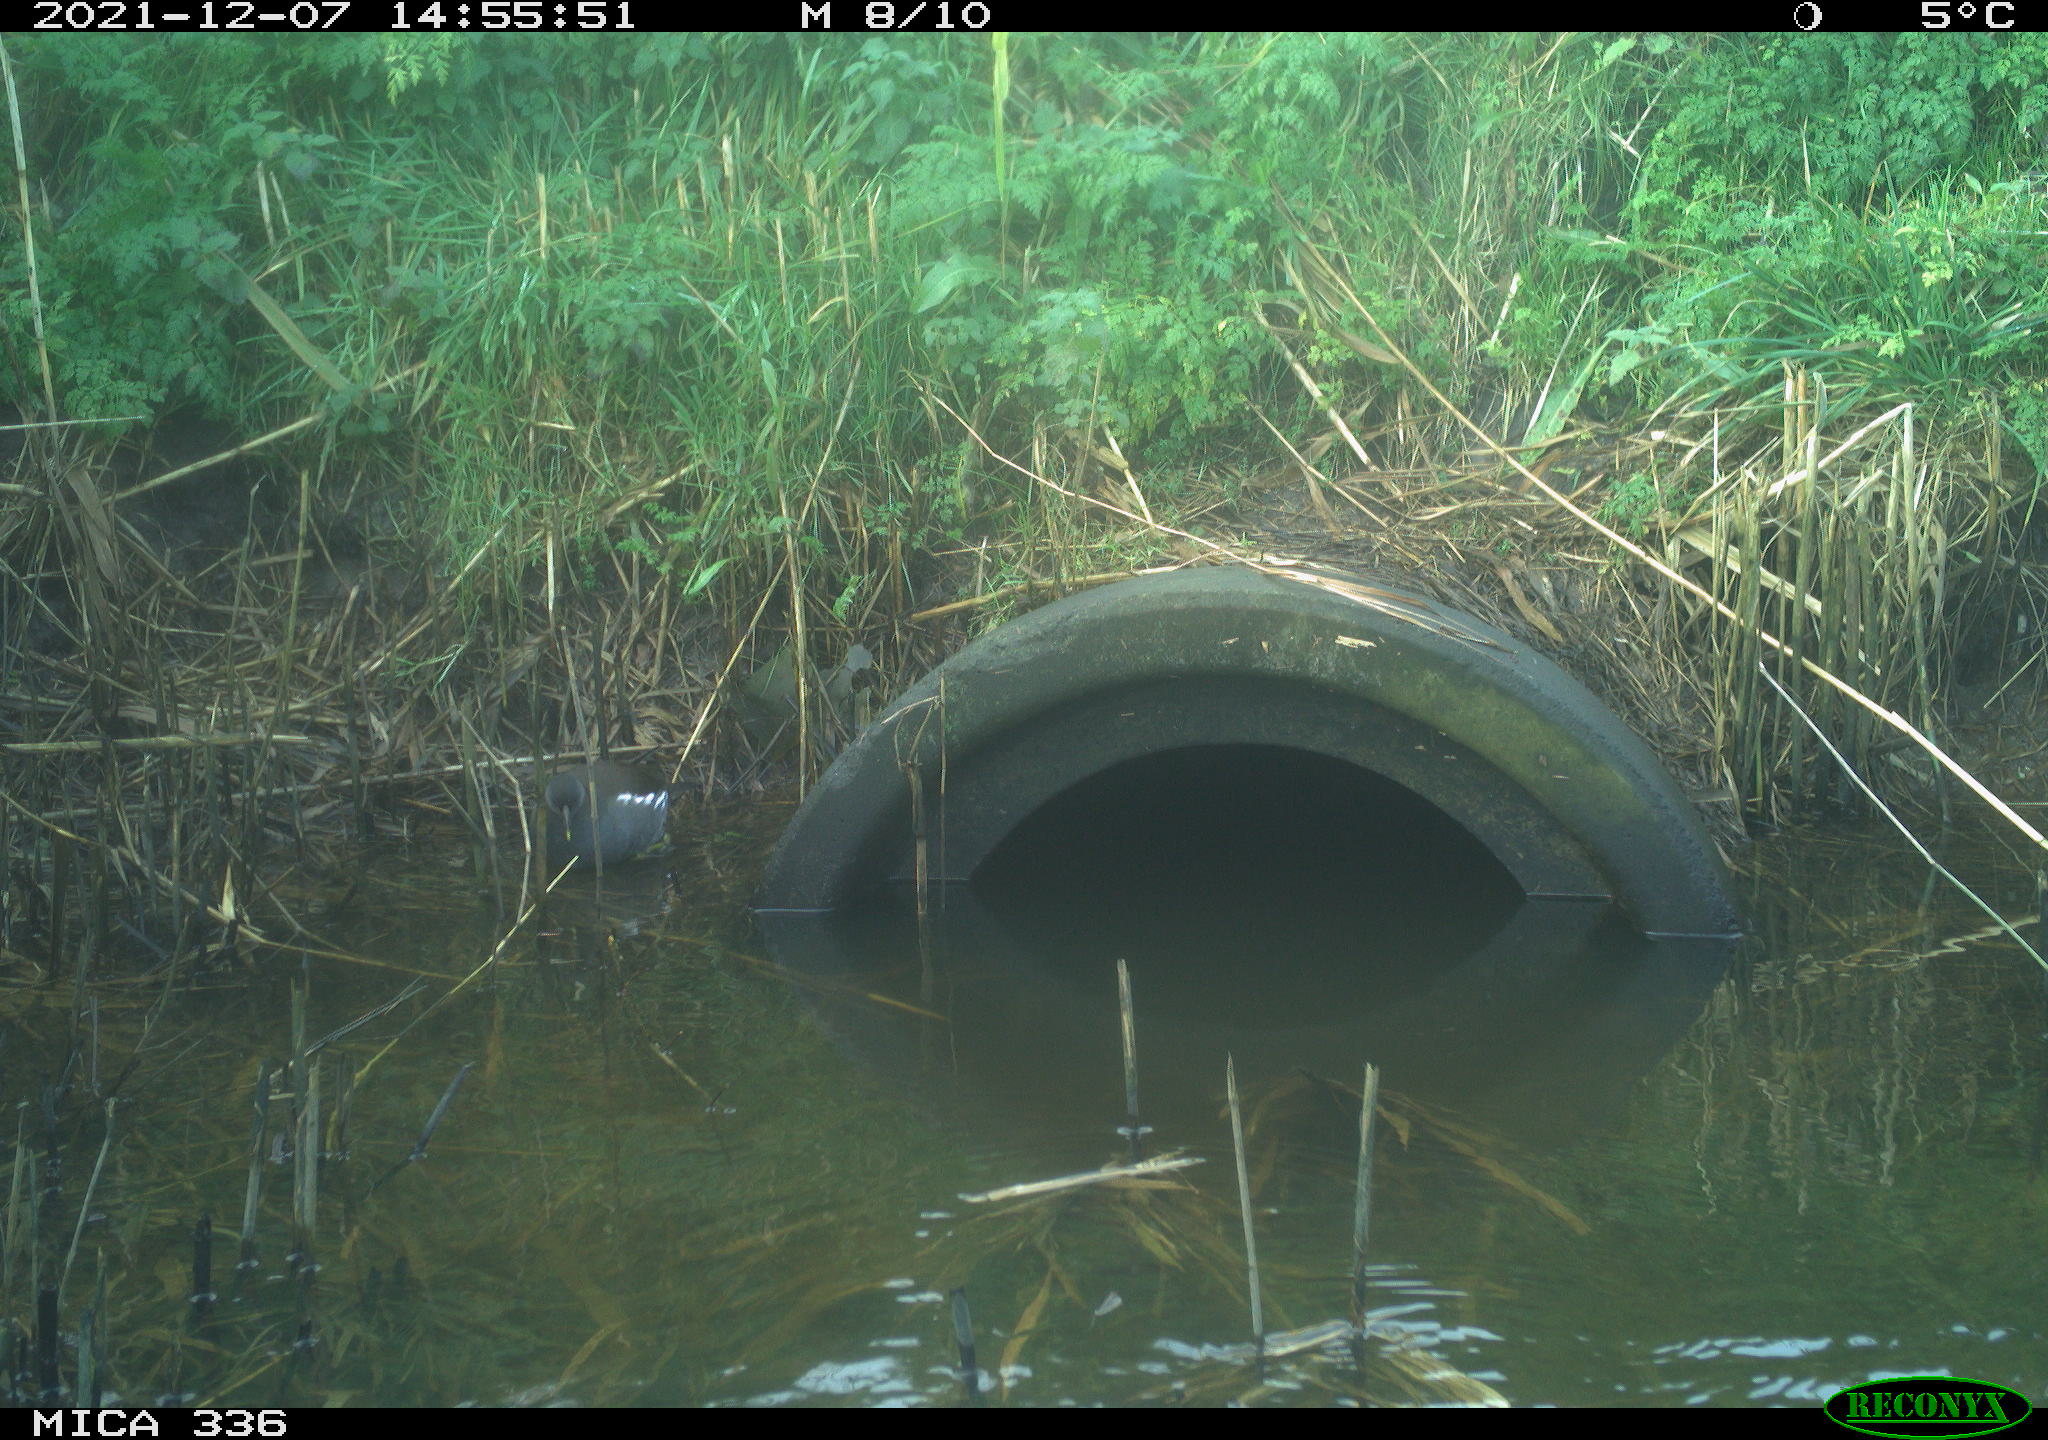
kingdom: Animalia
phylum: Chordata
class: Aves
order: Gruiformes
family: Rallidae
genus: Gallinula
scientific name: Gallinula chloropus
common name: Common moorhen
